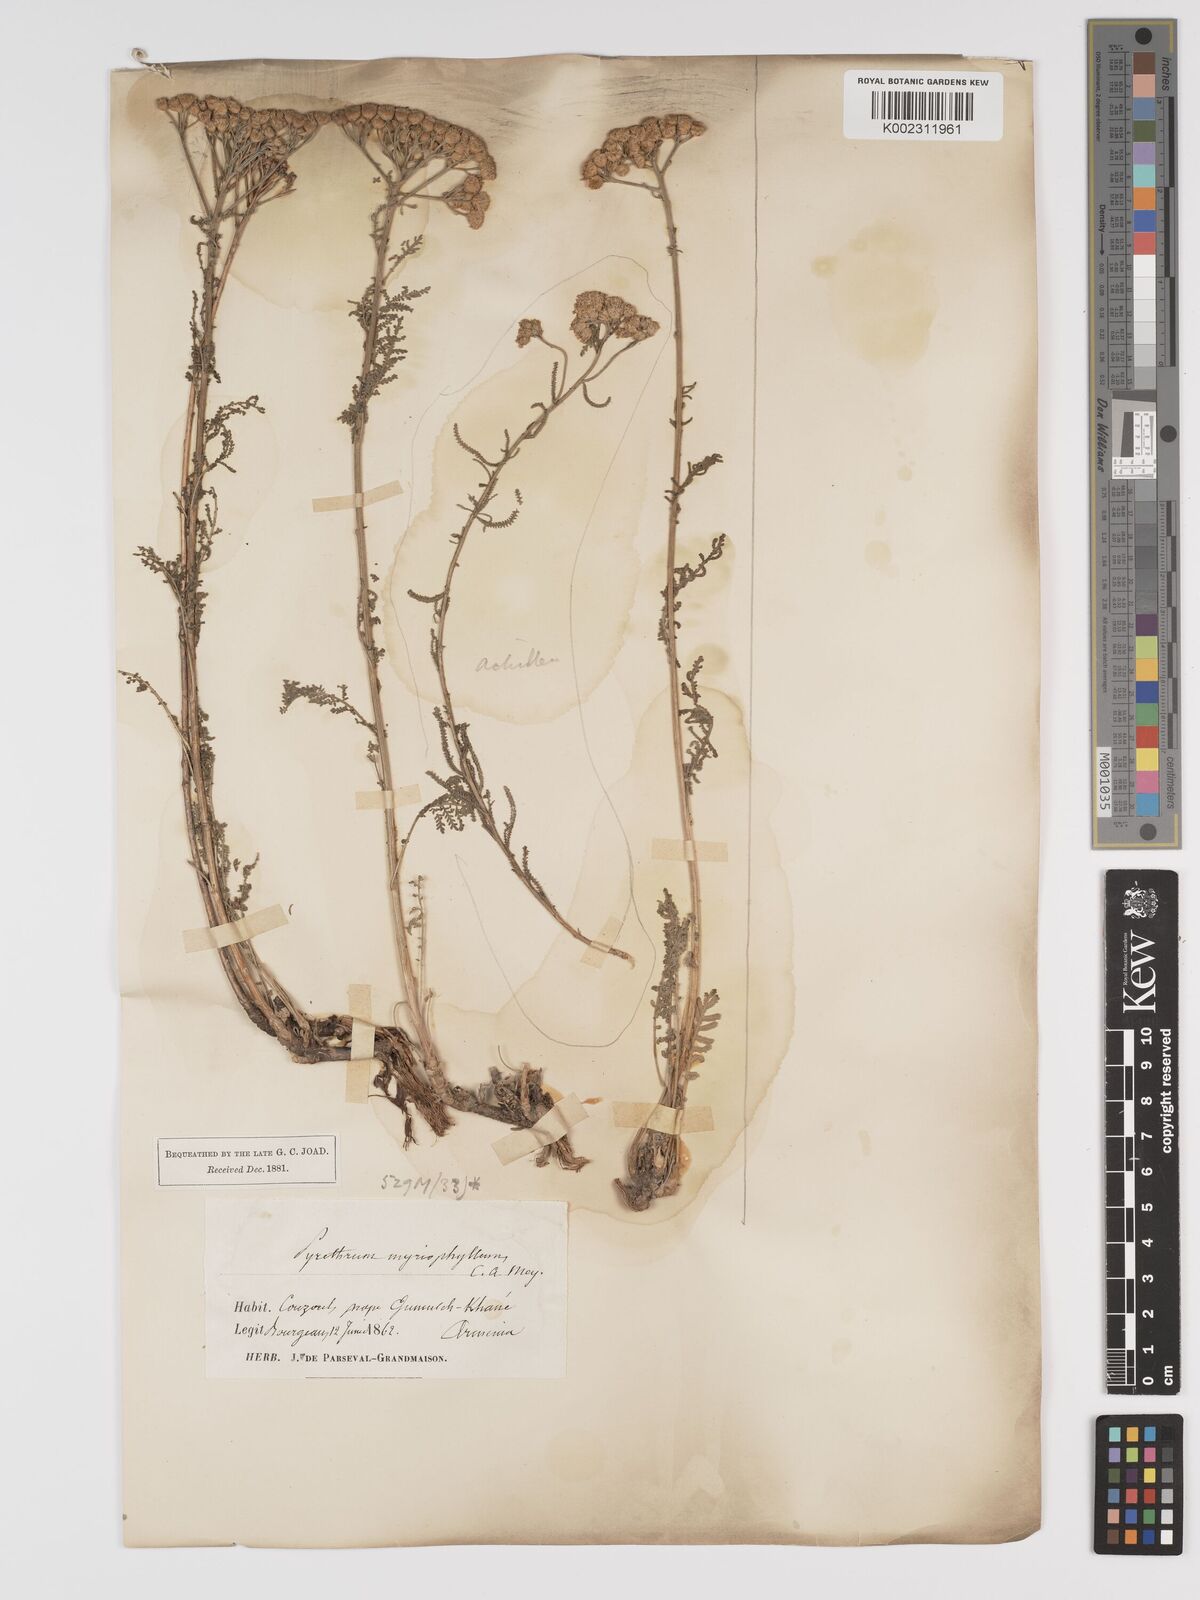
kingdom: Plantae
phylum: Tracheophyta
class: Magnoliopsida
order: Asterales
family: Asteraceae
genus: Tanacetum
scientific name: Tanacetum polycephalum
